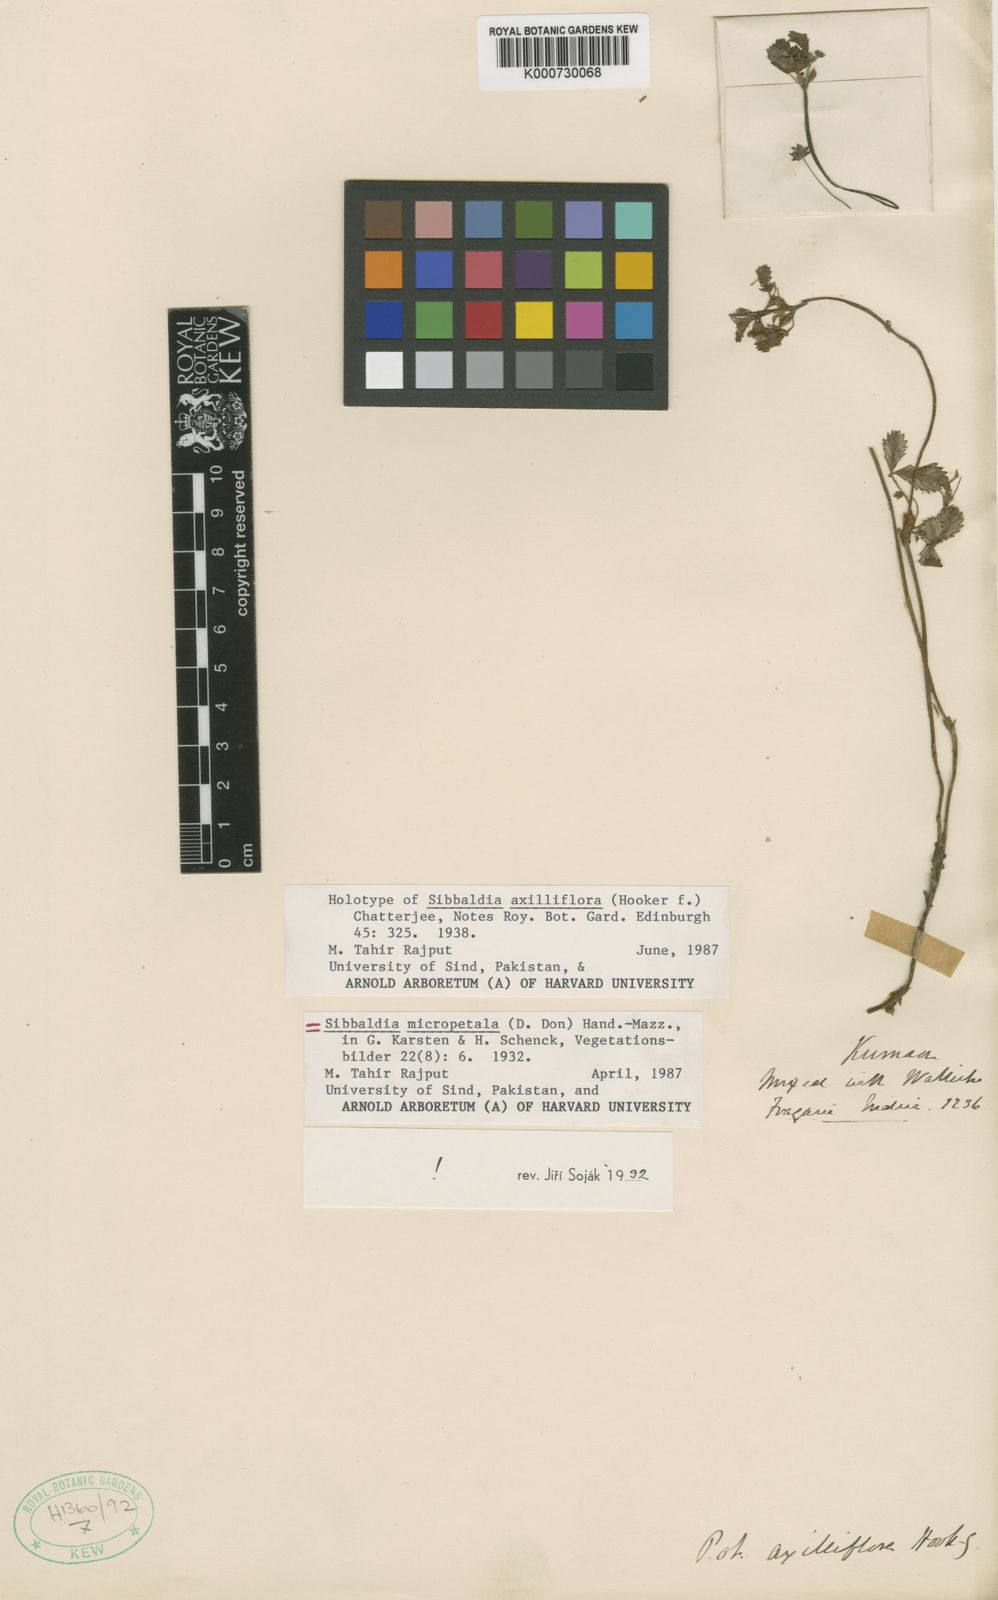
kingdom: Plantae
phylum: Tracheophyta
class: Magnoliopsida
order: Rosales
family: Rosaceae
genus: Sibbaldia
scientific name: Sibbaldia
